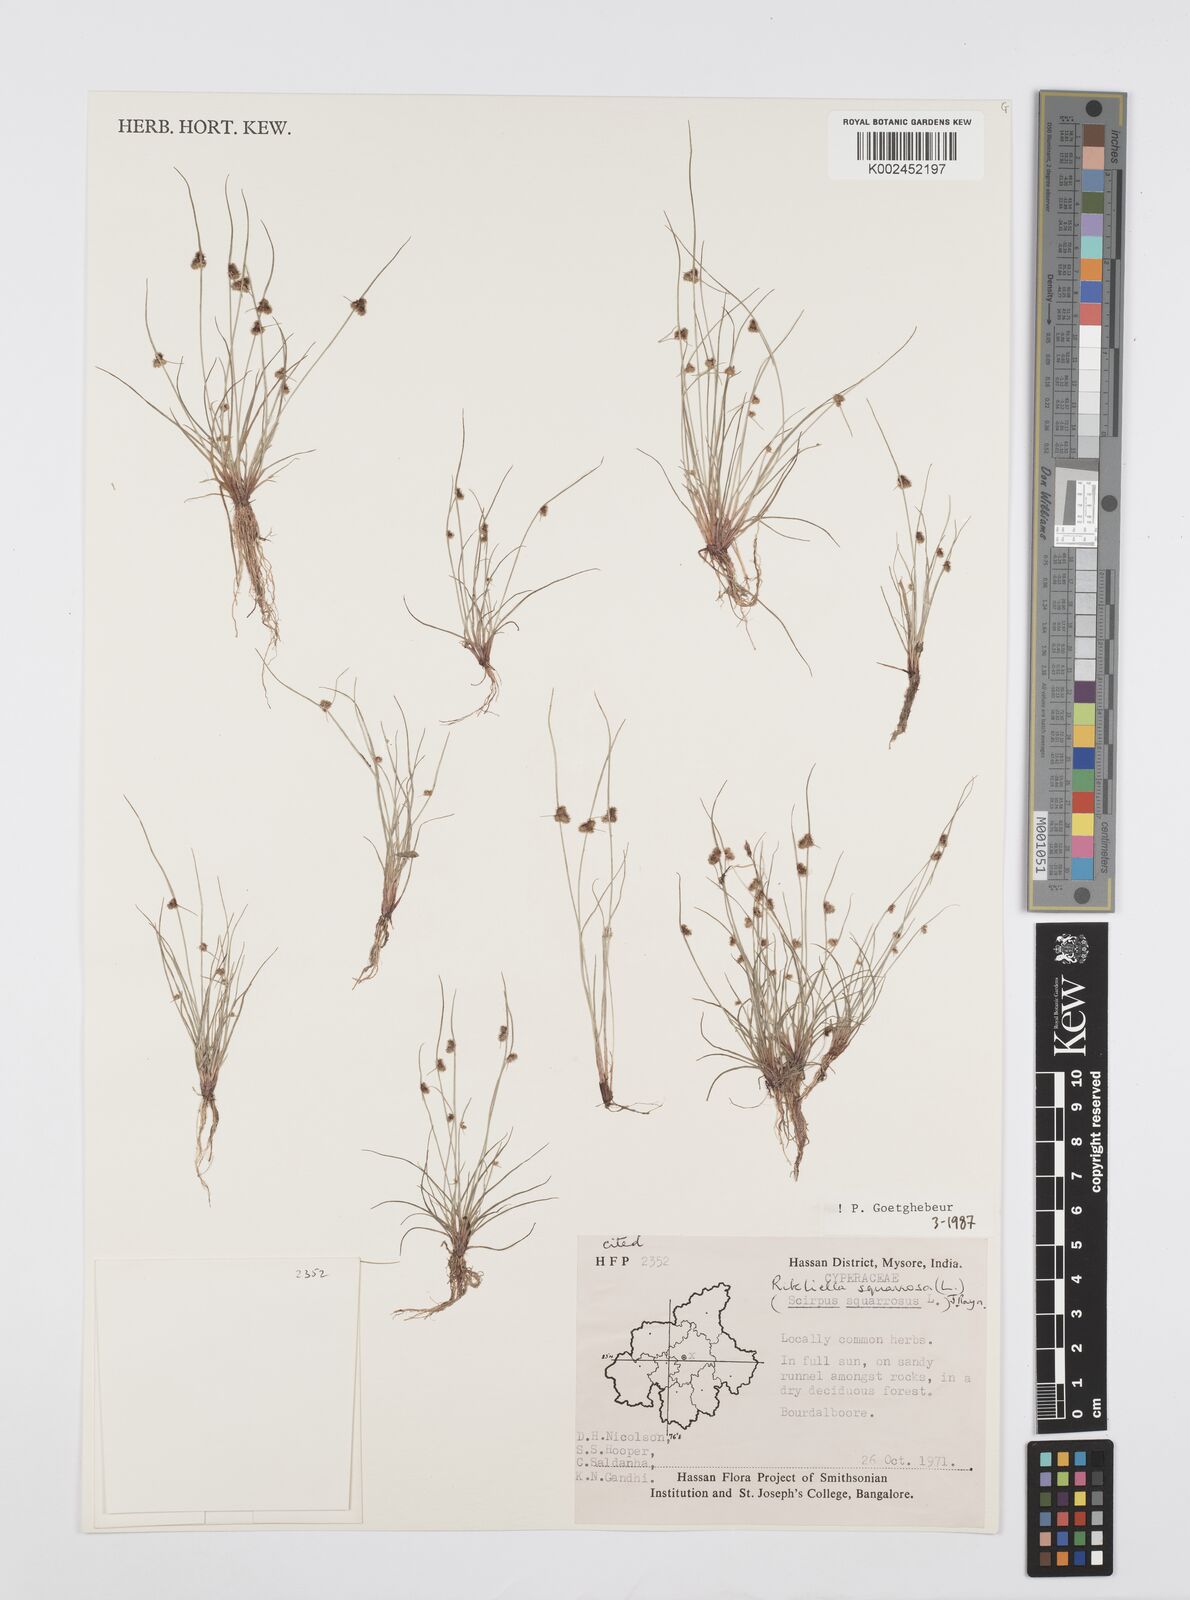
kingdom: Plantae
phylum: Tracheophyta
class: Liliopsida
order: Poales
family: Cyperaceae
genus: Cyperus
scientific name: Cyperus squarrosus
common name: Awned cyperus
